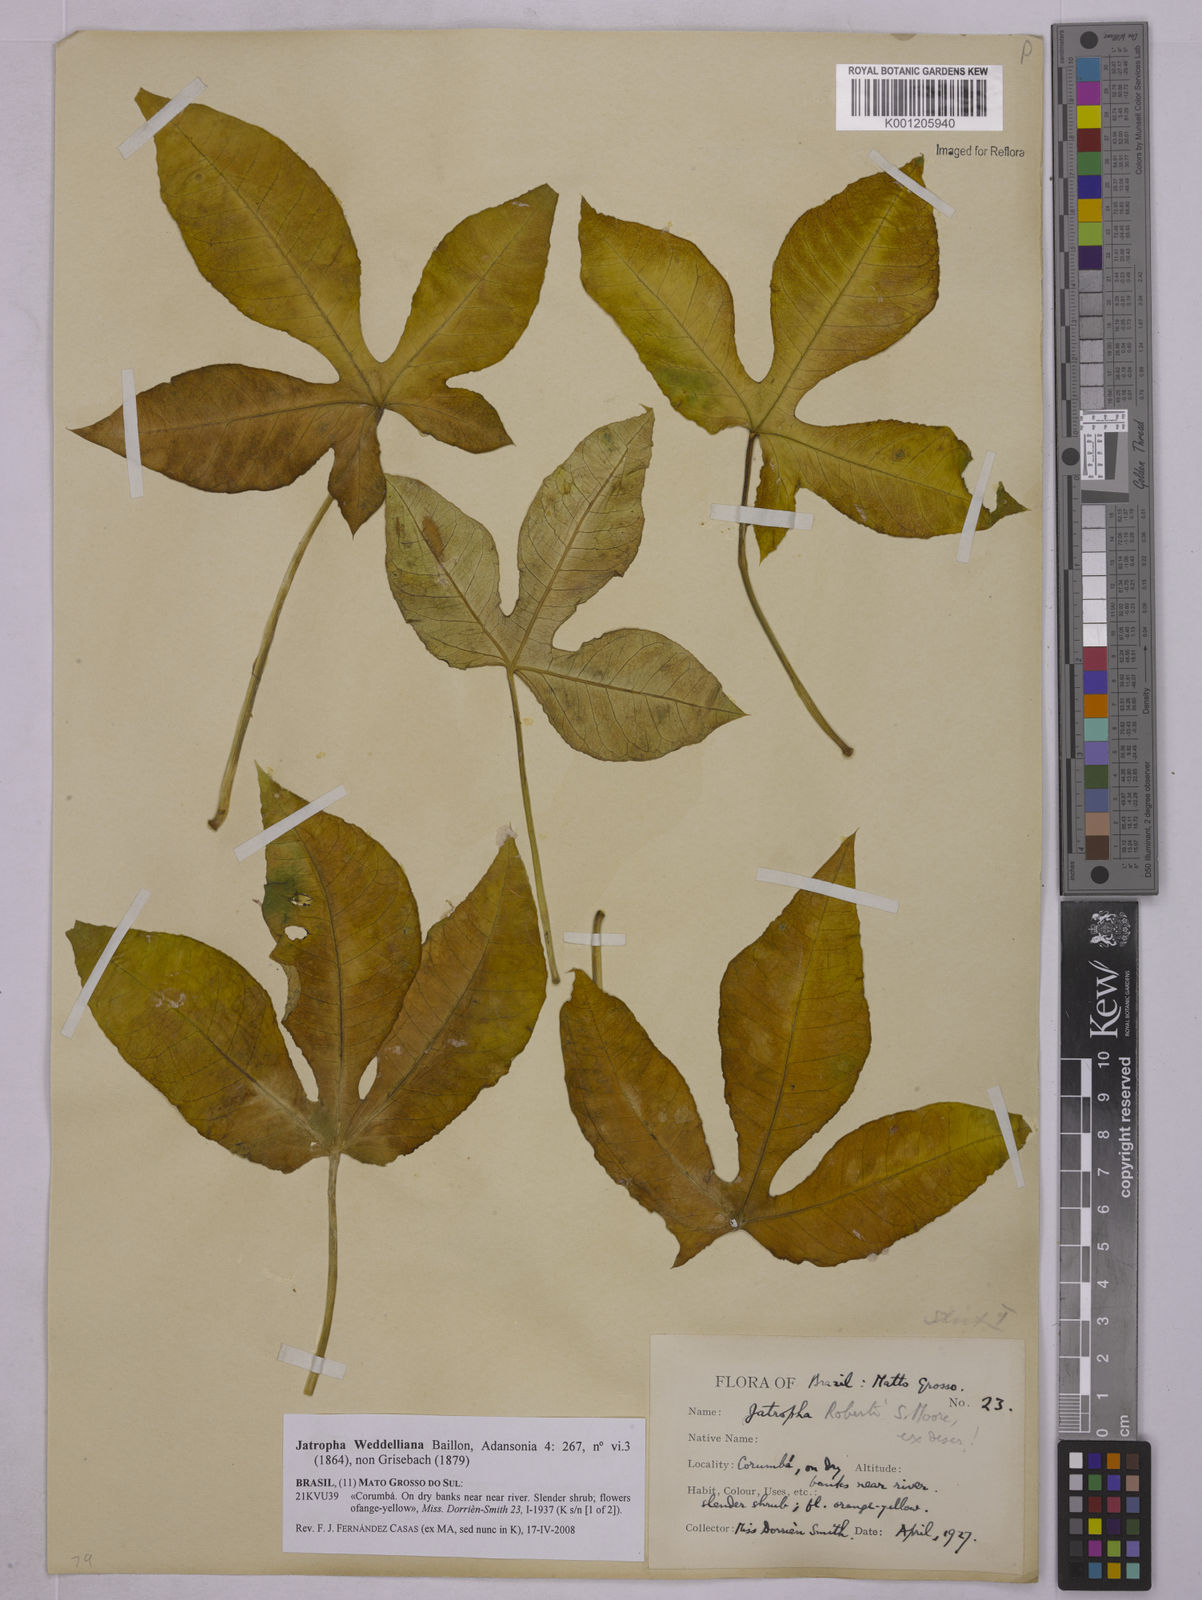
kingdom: Plantae
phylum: Tracheophyta
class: Magnoliopsida
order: Malpighiales
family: Euphorbiaceae
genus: Jatropha
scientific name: Jatropha weddeliana
